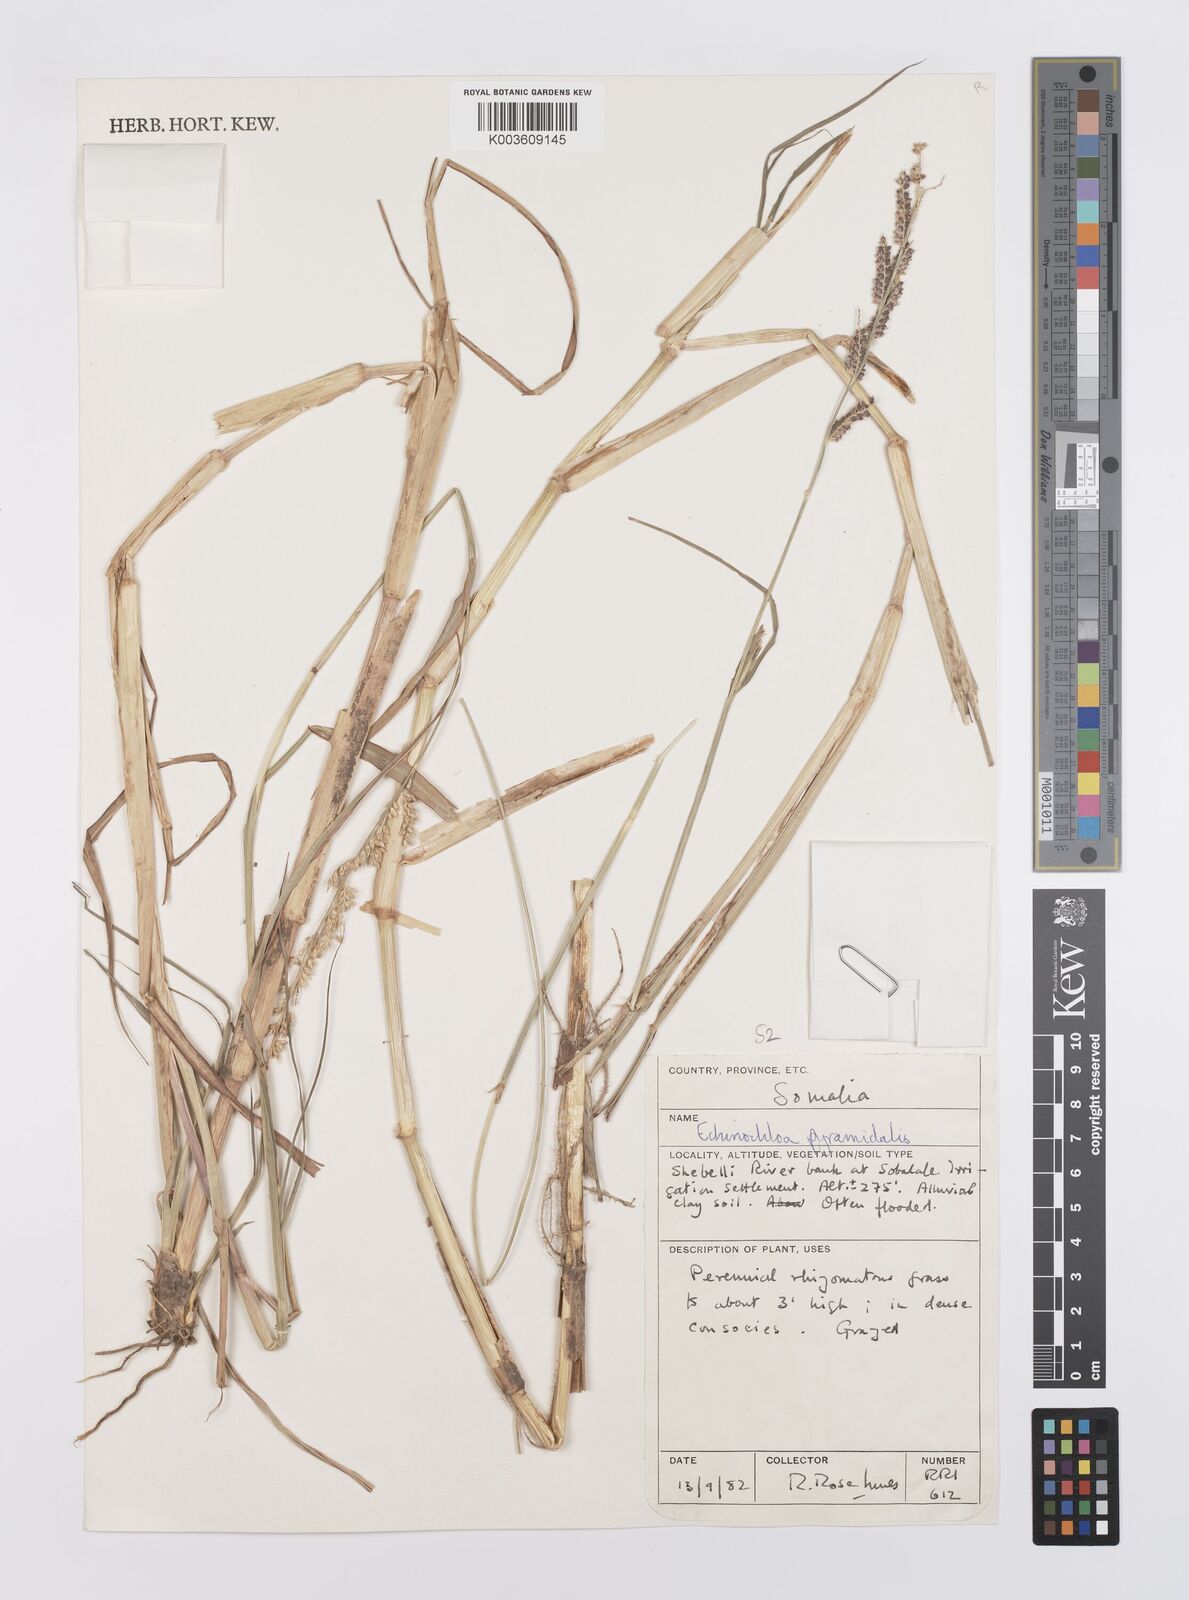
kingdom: Plantae
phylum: Tracheophyta
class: Liliopsida
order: Poales
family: Poaceae
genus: Echinochloa
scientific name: Echinochloa pyramidalis
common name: Antelope grass
